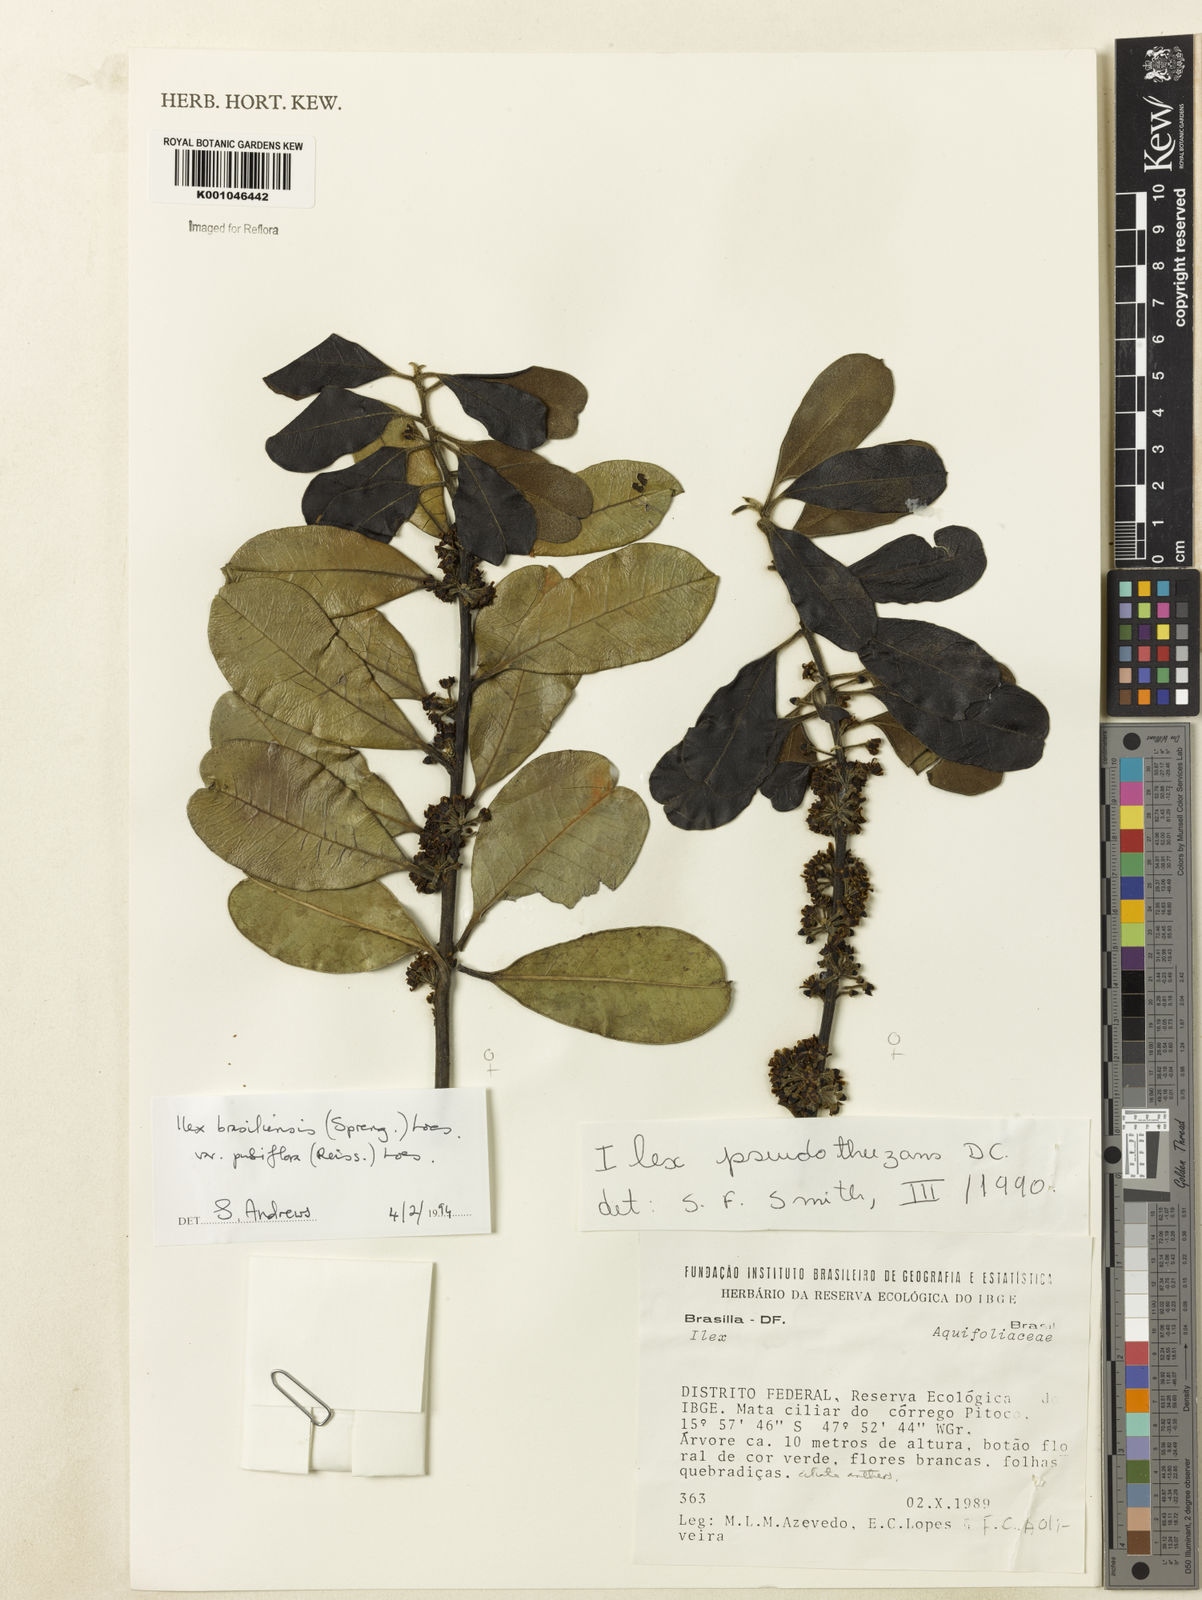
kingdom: Plantae
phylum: Tracheophyta
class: Magnoliopsida
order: Aquifoliales
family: Aquifoliaceae
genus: Ilex
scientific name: Ilex brasiliensis
